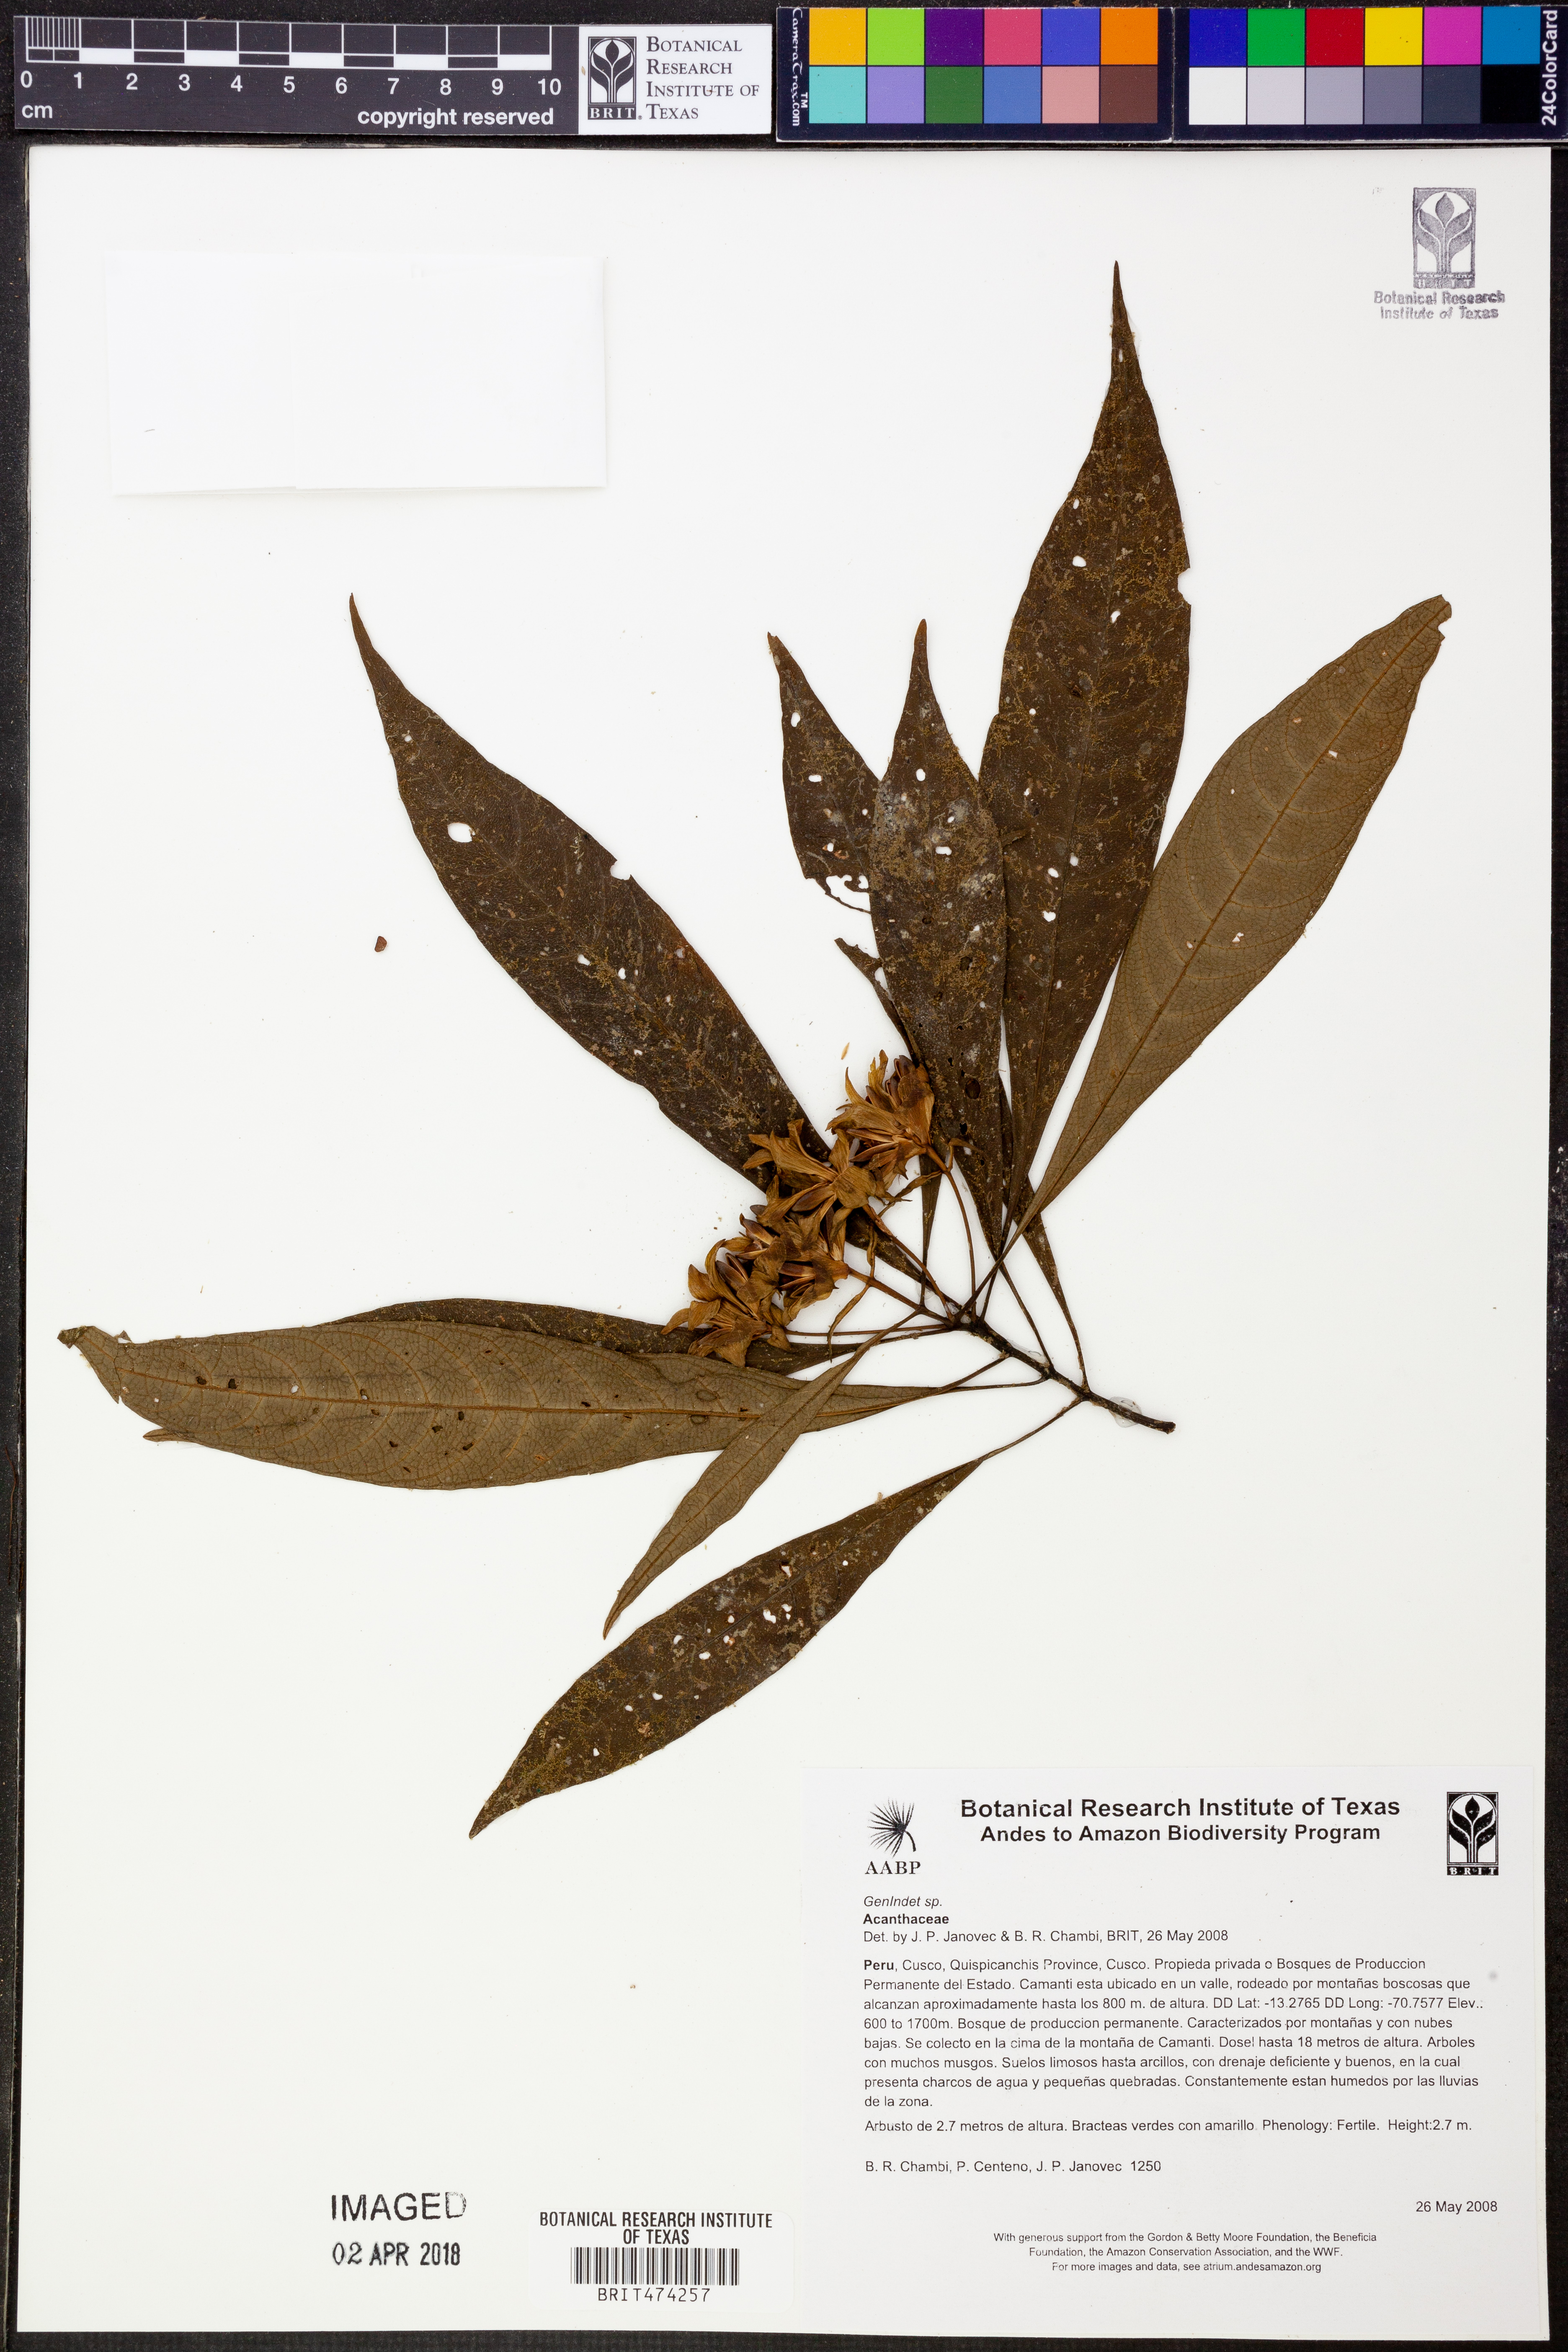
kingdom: Plantae
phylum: Tracheophyta
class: Magnoliopsida
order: Lamiales
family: Acanthaceae
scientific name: Acanthaceae
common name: Acanthaceae
